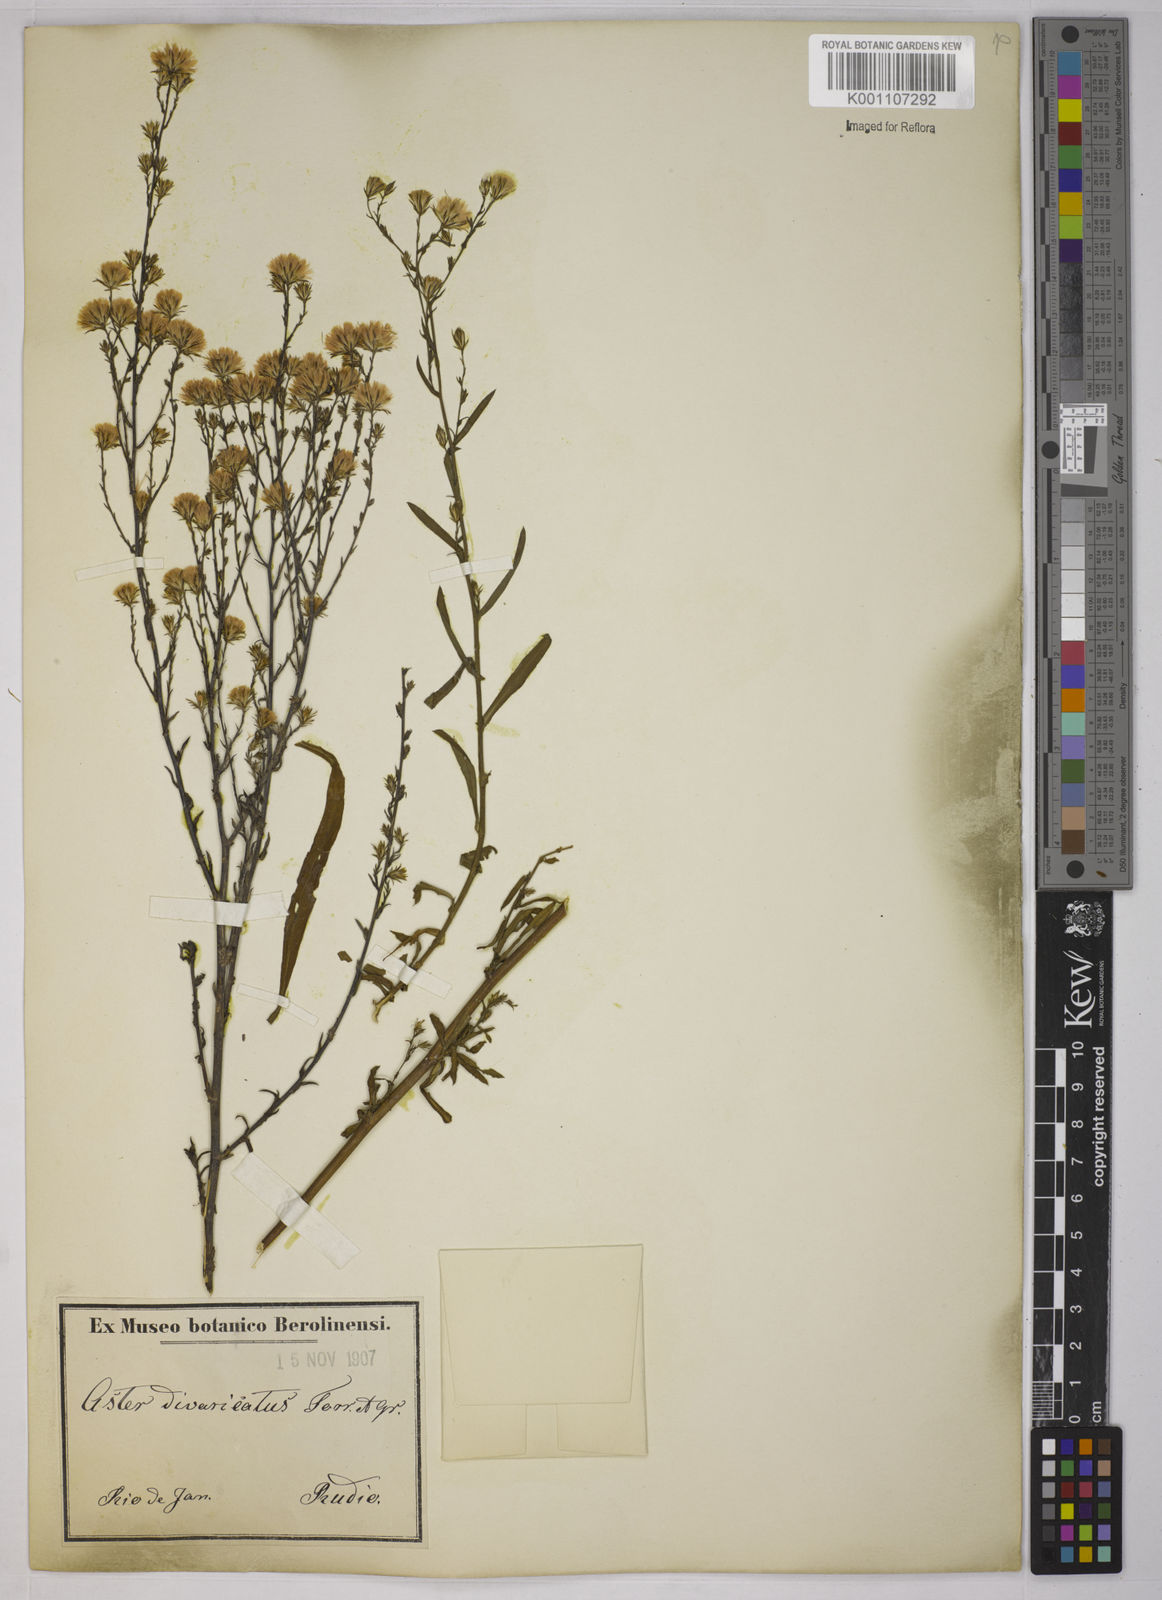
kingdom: Plantae
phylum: Tracheophyta
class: Magnoliopsida
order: Asterales
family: Asteraceae
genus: Symphyotrichum
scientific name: Symphyotrichum
